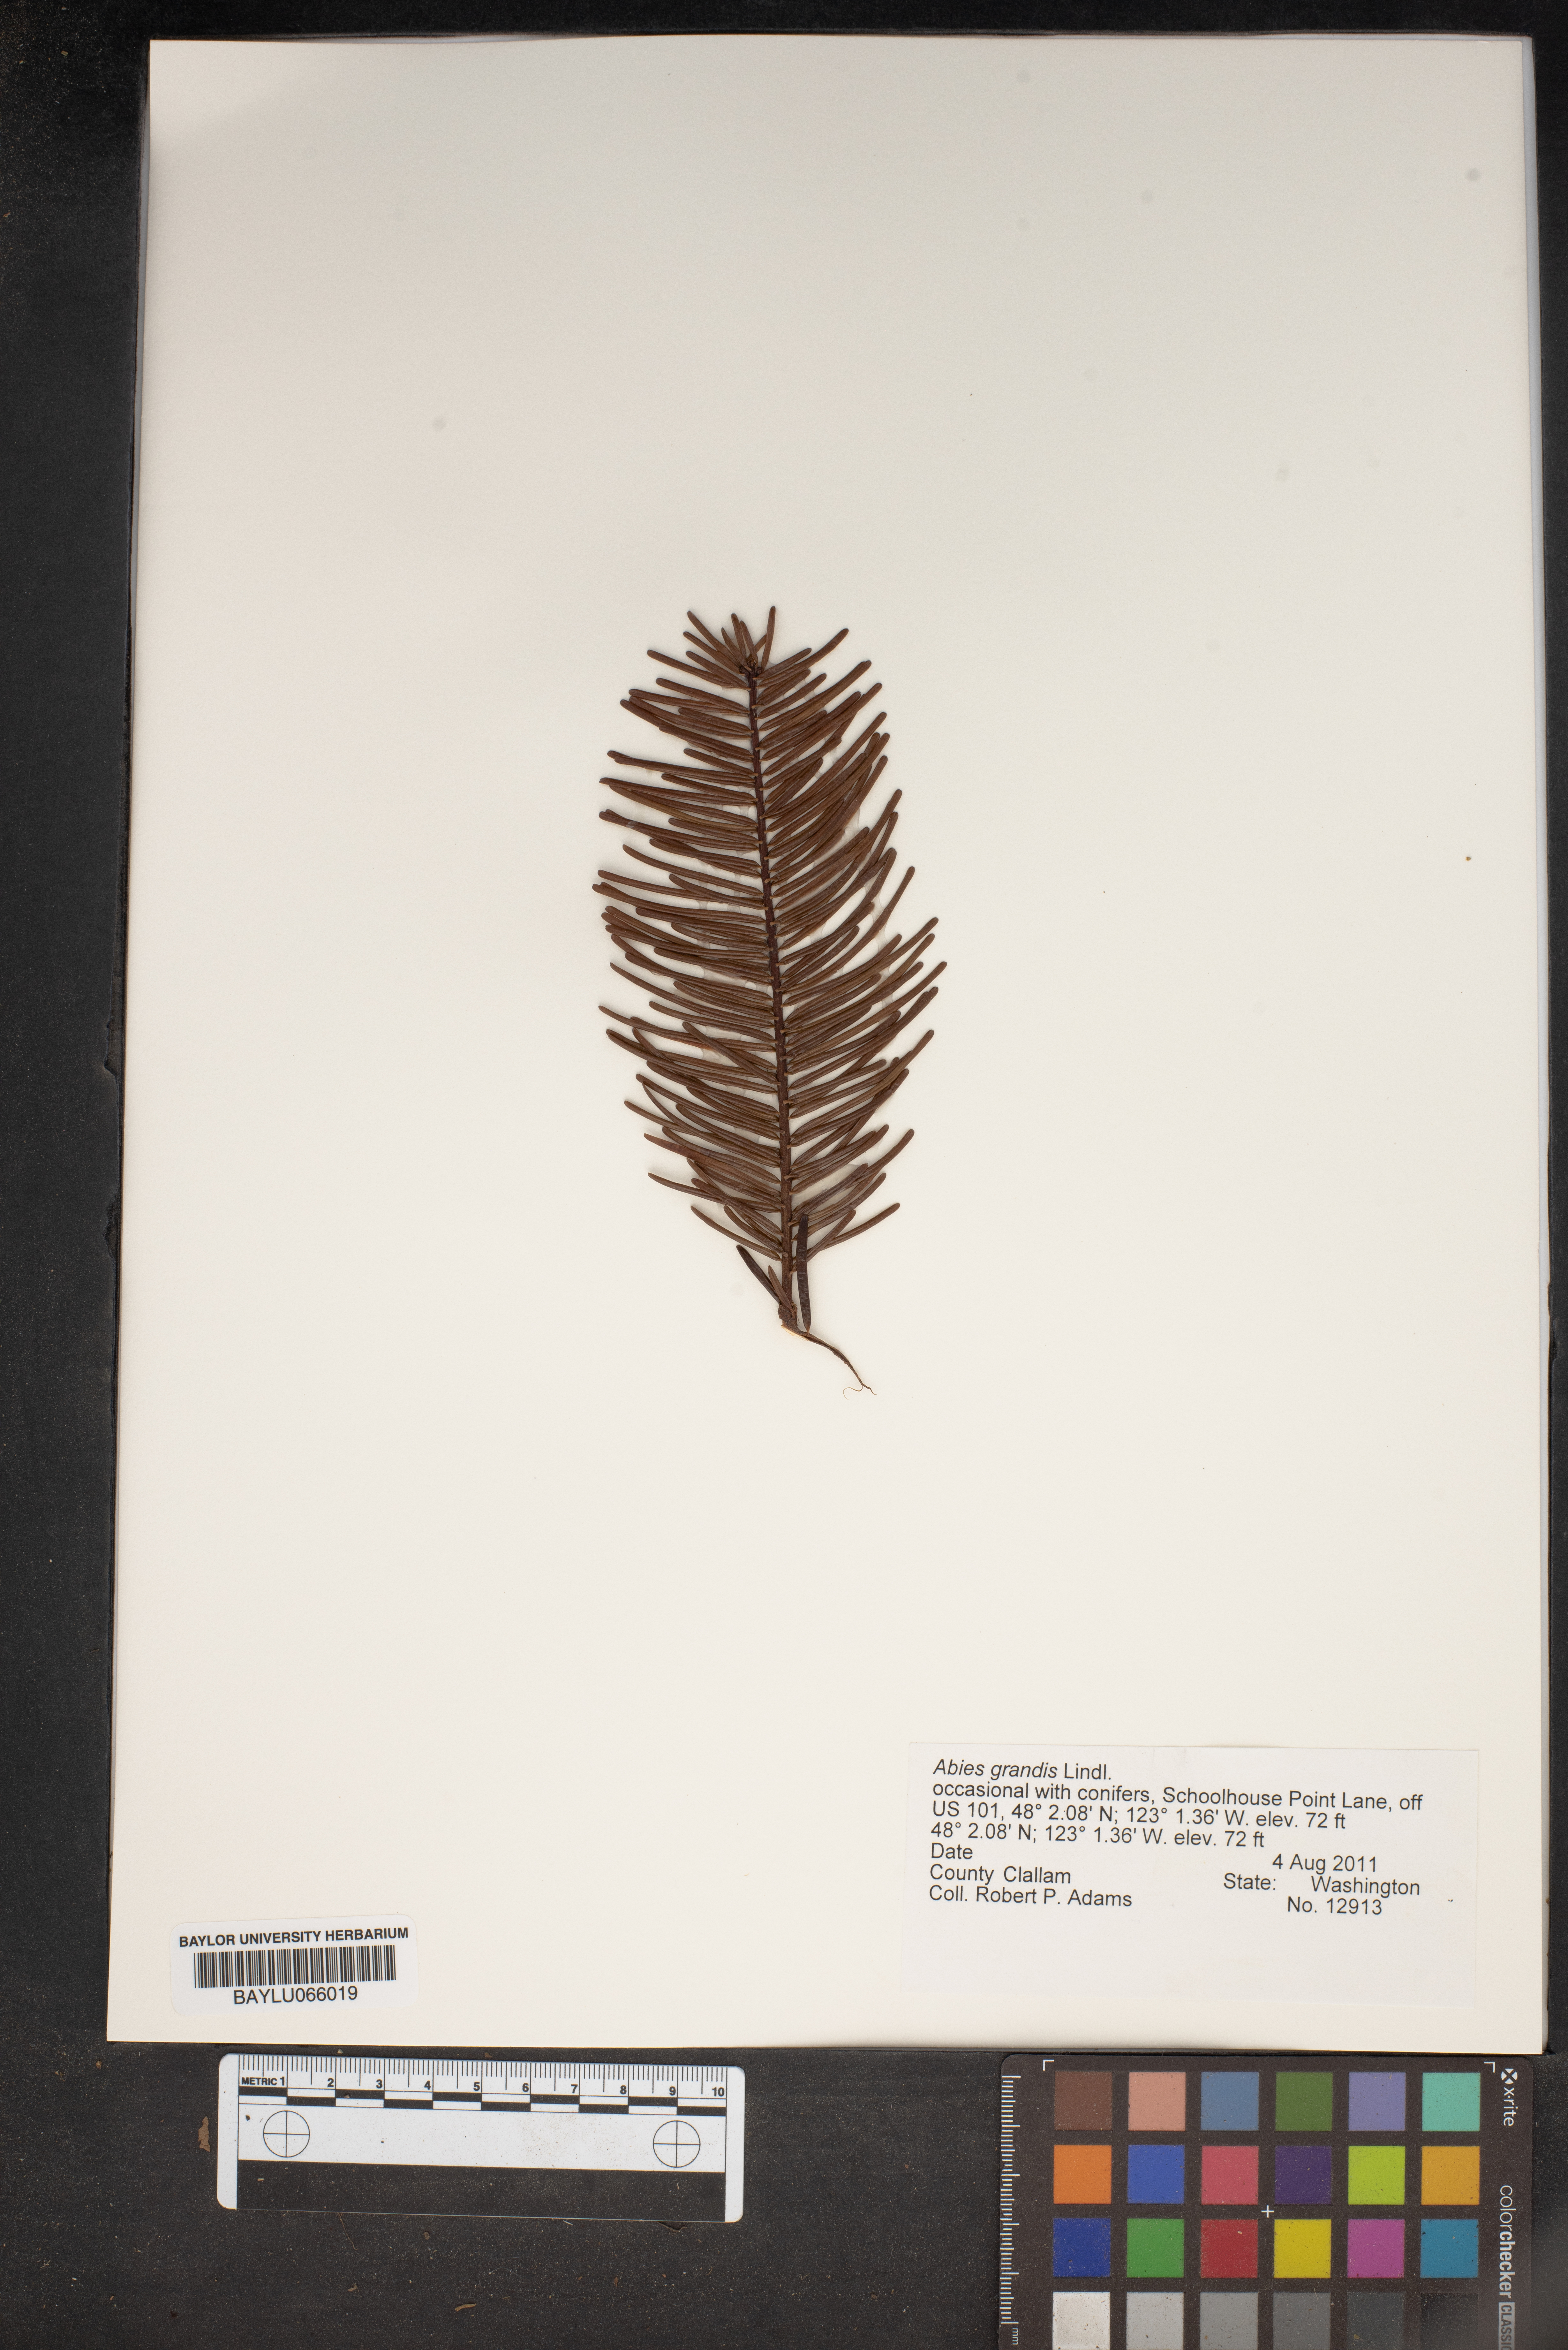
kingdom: Plantae
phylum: Tracheophyta
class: Pinopsida
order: Pinales
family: Pinaceae
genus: Abies
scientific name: Abies grandis
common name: Giant fir
